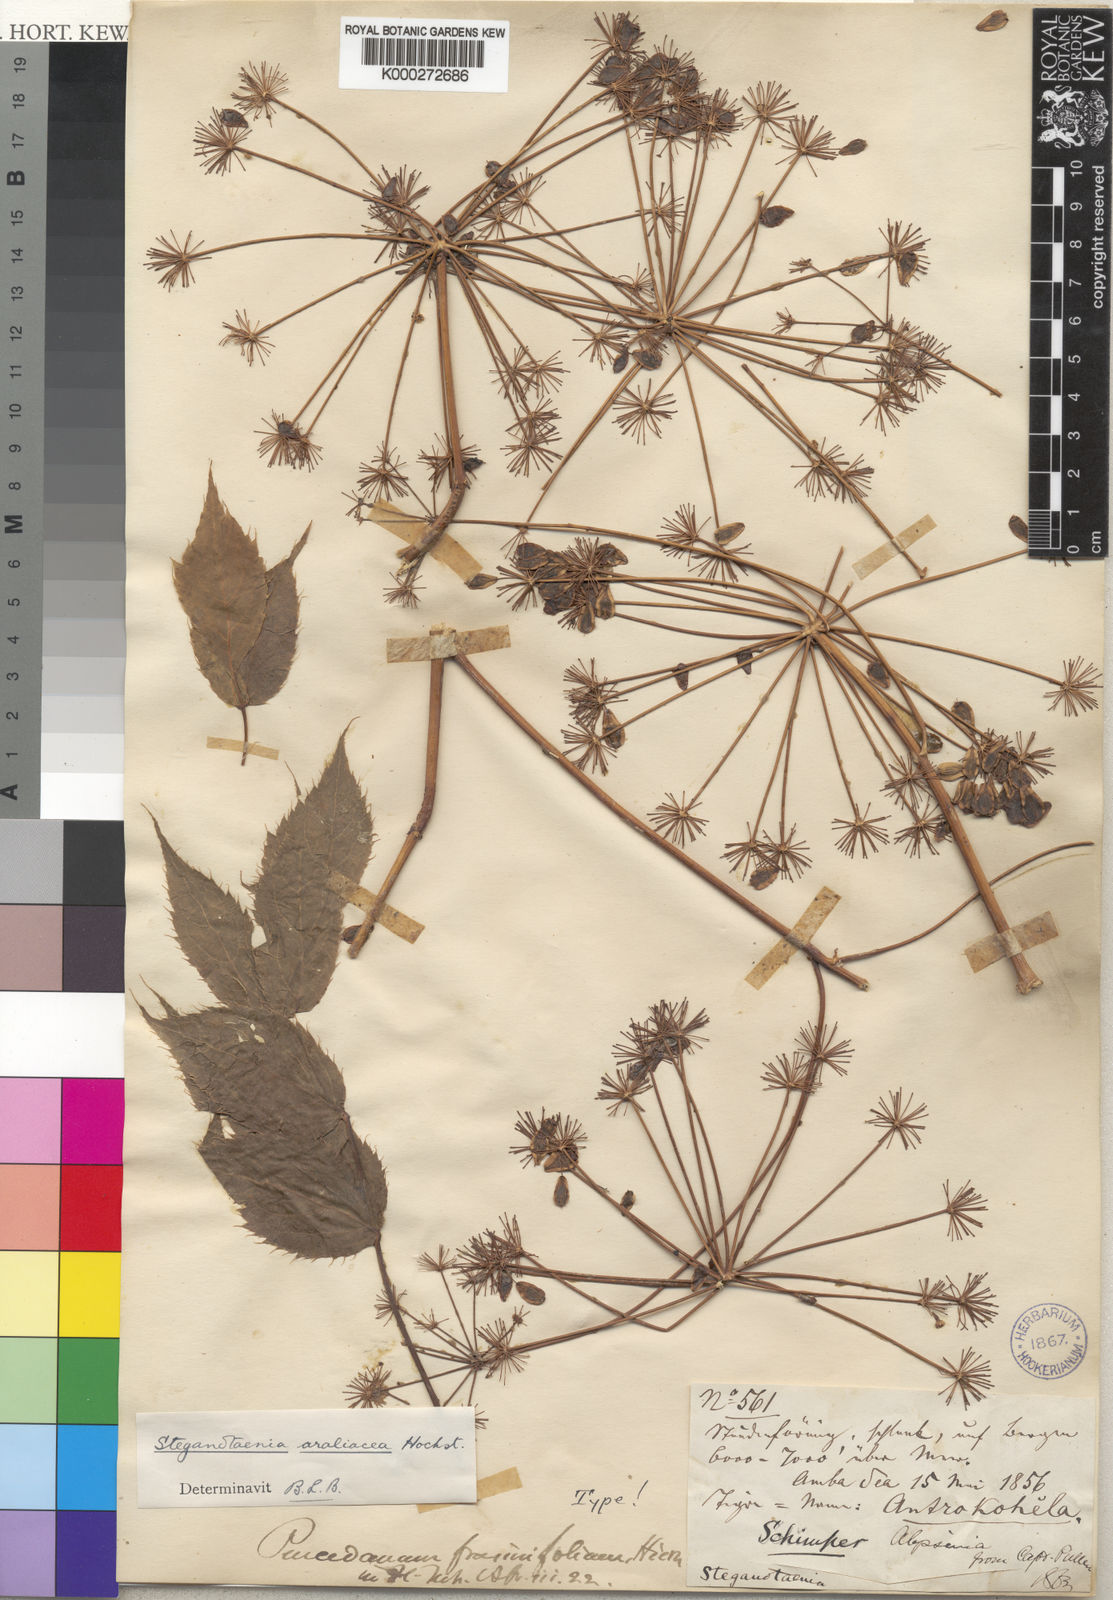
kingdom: Plantae
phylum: Tracheophyta
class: Magnoliopsida
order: Apiales
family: Apiaceae
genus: Steganotaenia
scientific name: Steganotaenia araliacea
